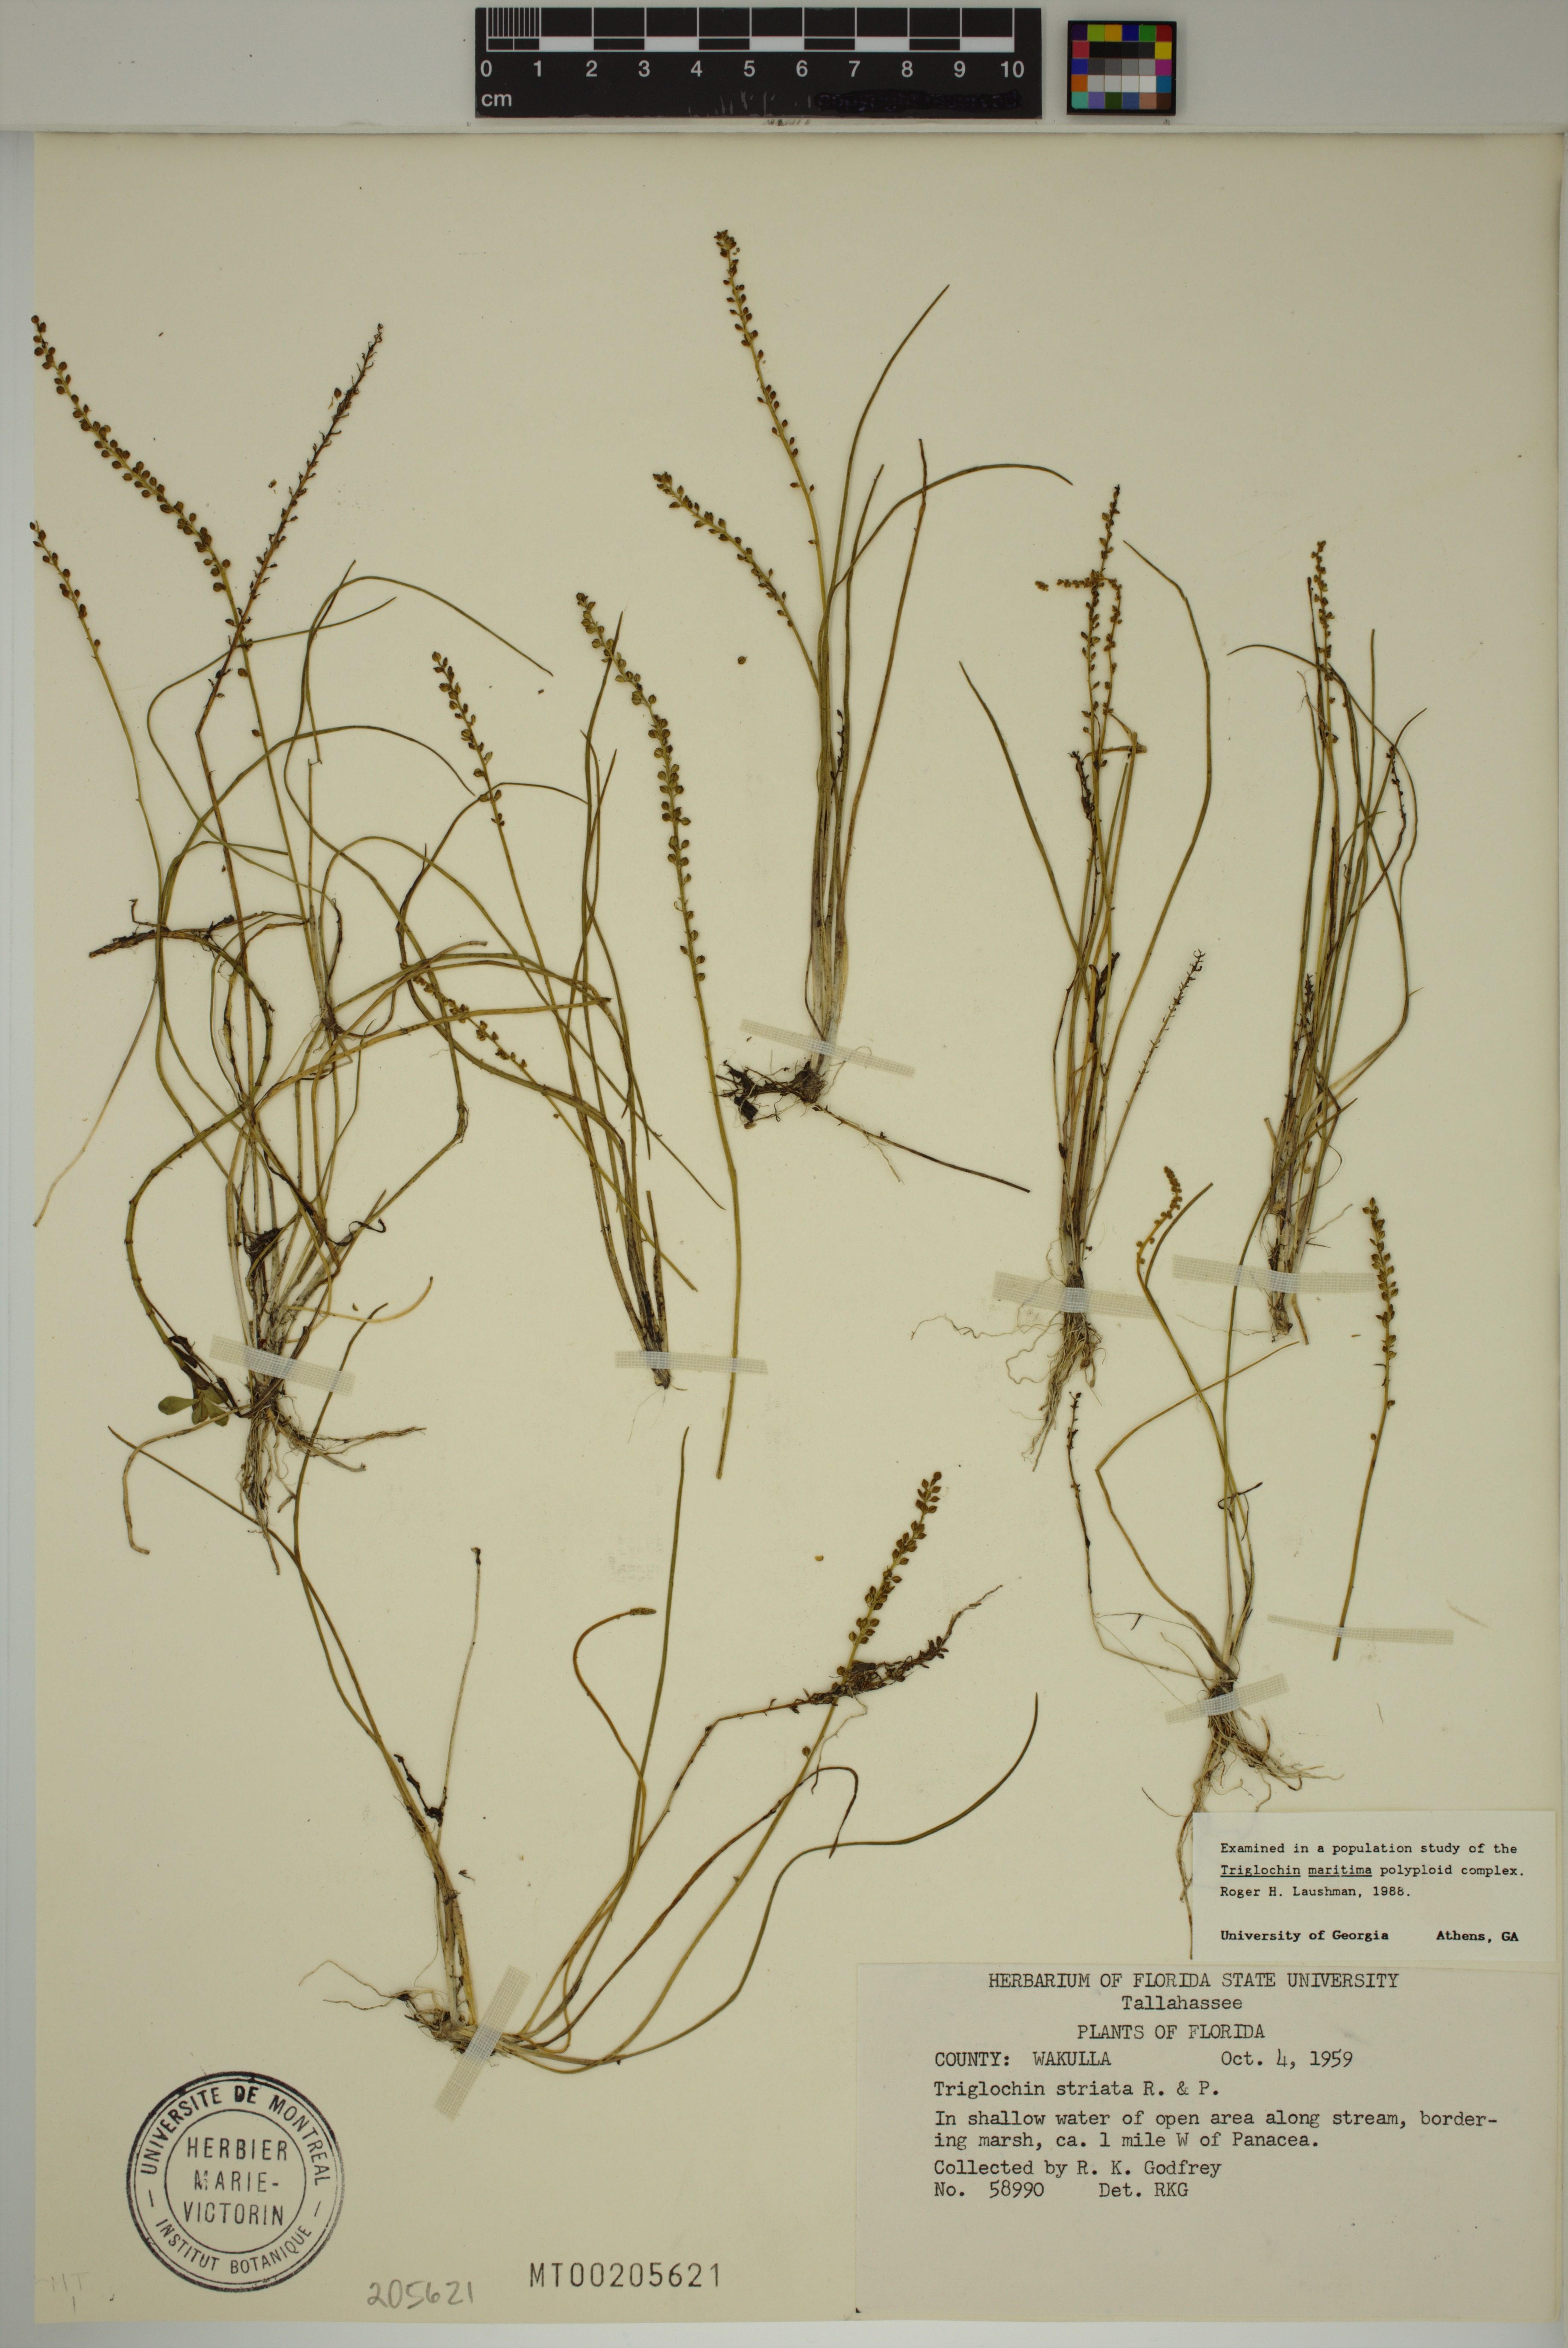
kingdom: Plantae
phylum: Tracheophyta
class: Liliopsida
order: Alismatales
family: Juncaginaceae
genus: Triglochin
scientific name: Triglochin striata
